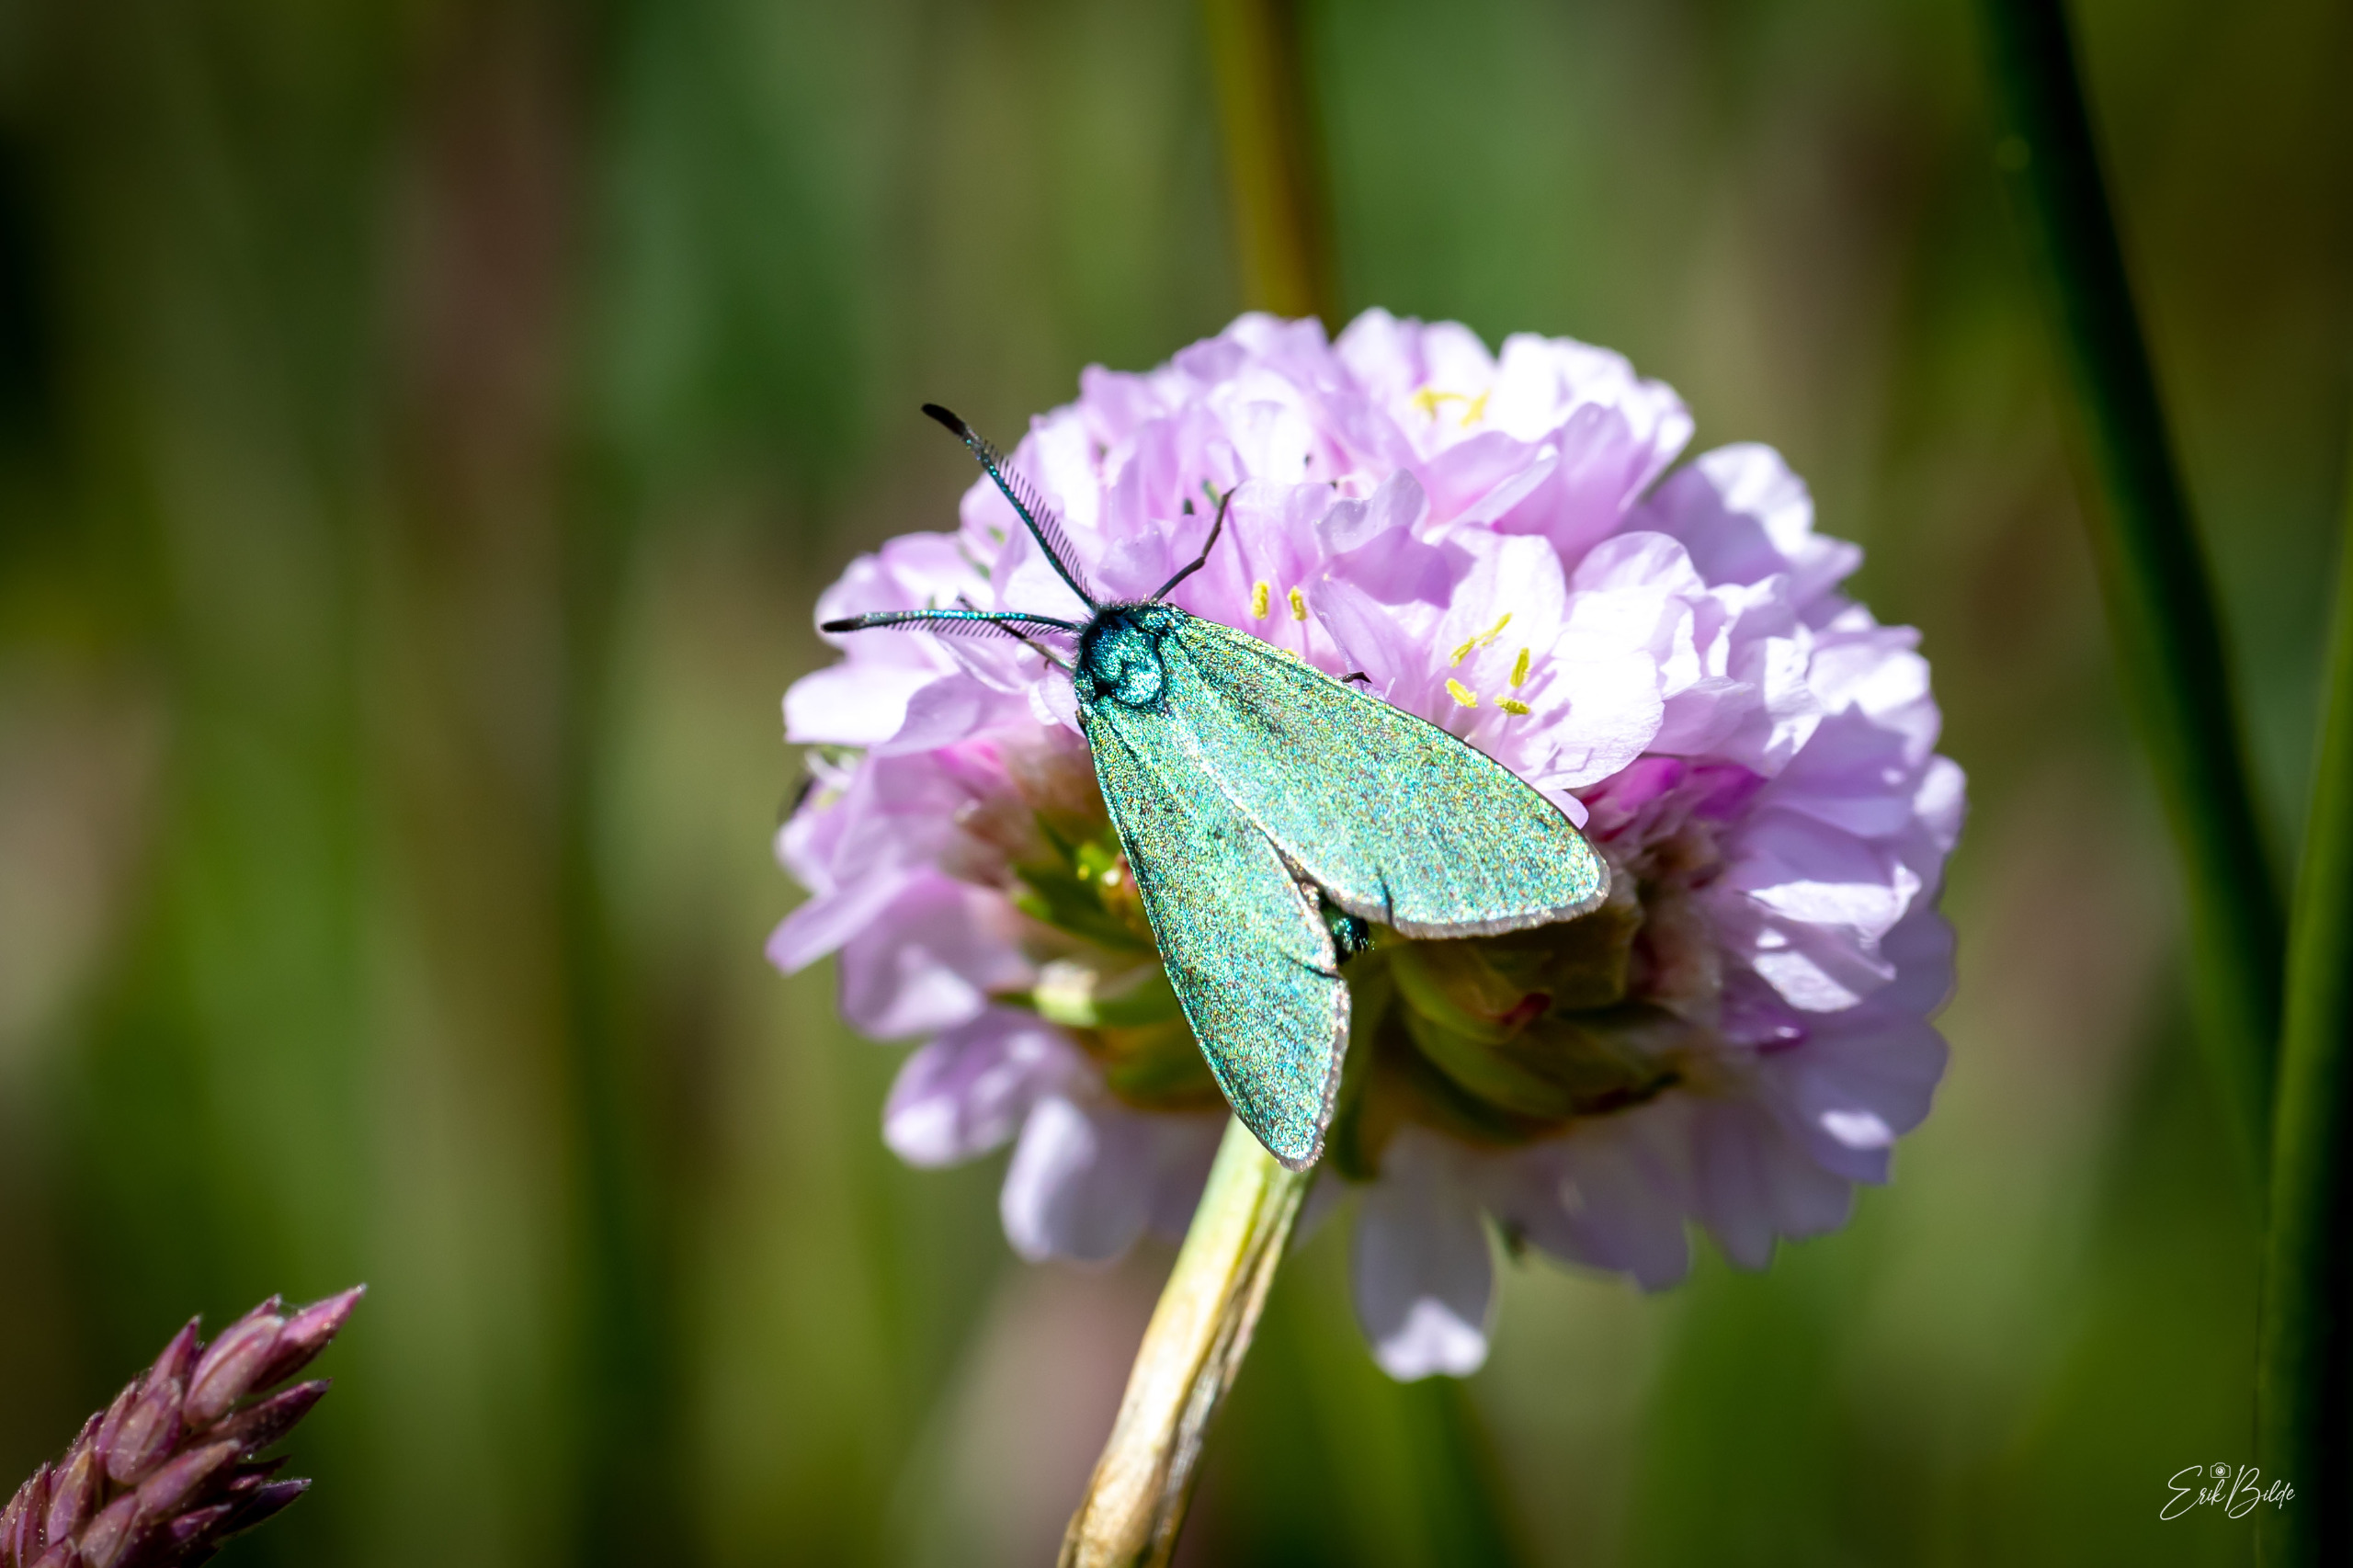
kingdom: Animalia
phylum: Arthropoda
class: Insecta
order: Lepidoptera
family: Zygaenidae
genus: Adscita
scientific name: Adscita statices
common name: Metalvinge
